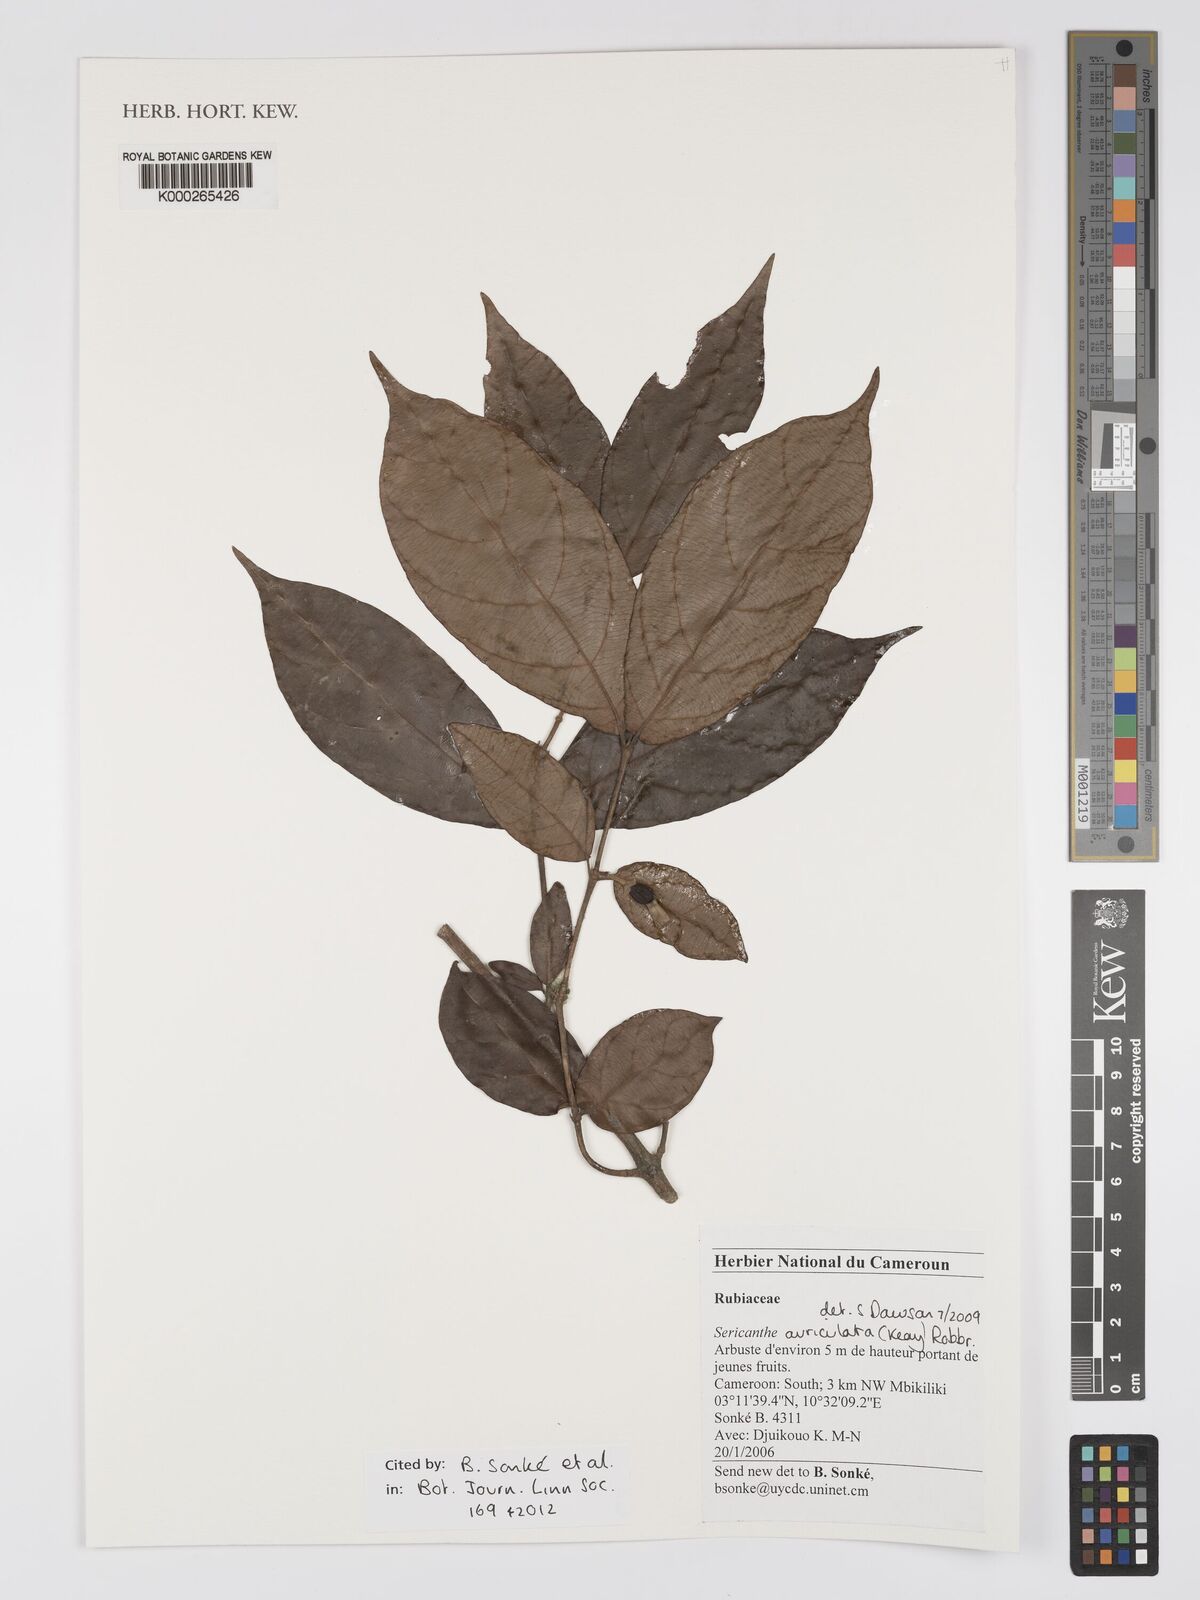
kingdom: Plantae
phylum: Tracheophyta
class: Magnoliopsida
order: Gentianales
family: Rubiaceae
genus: Sericanthe
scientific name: Sericanthe auriculata
